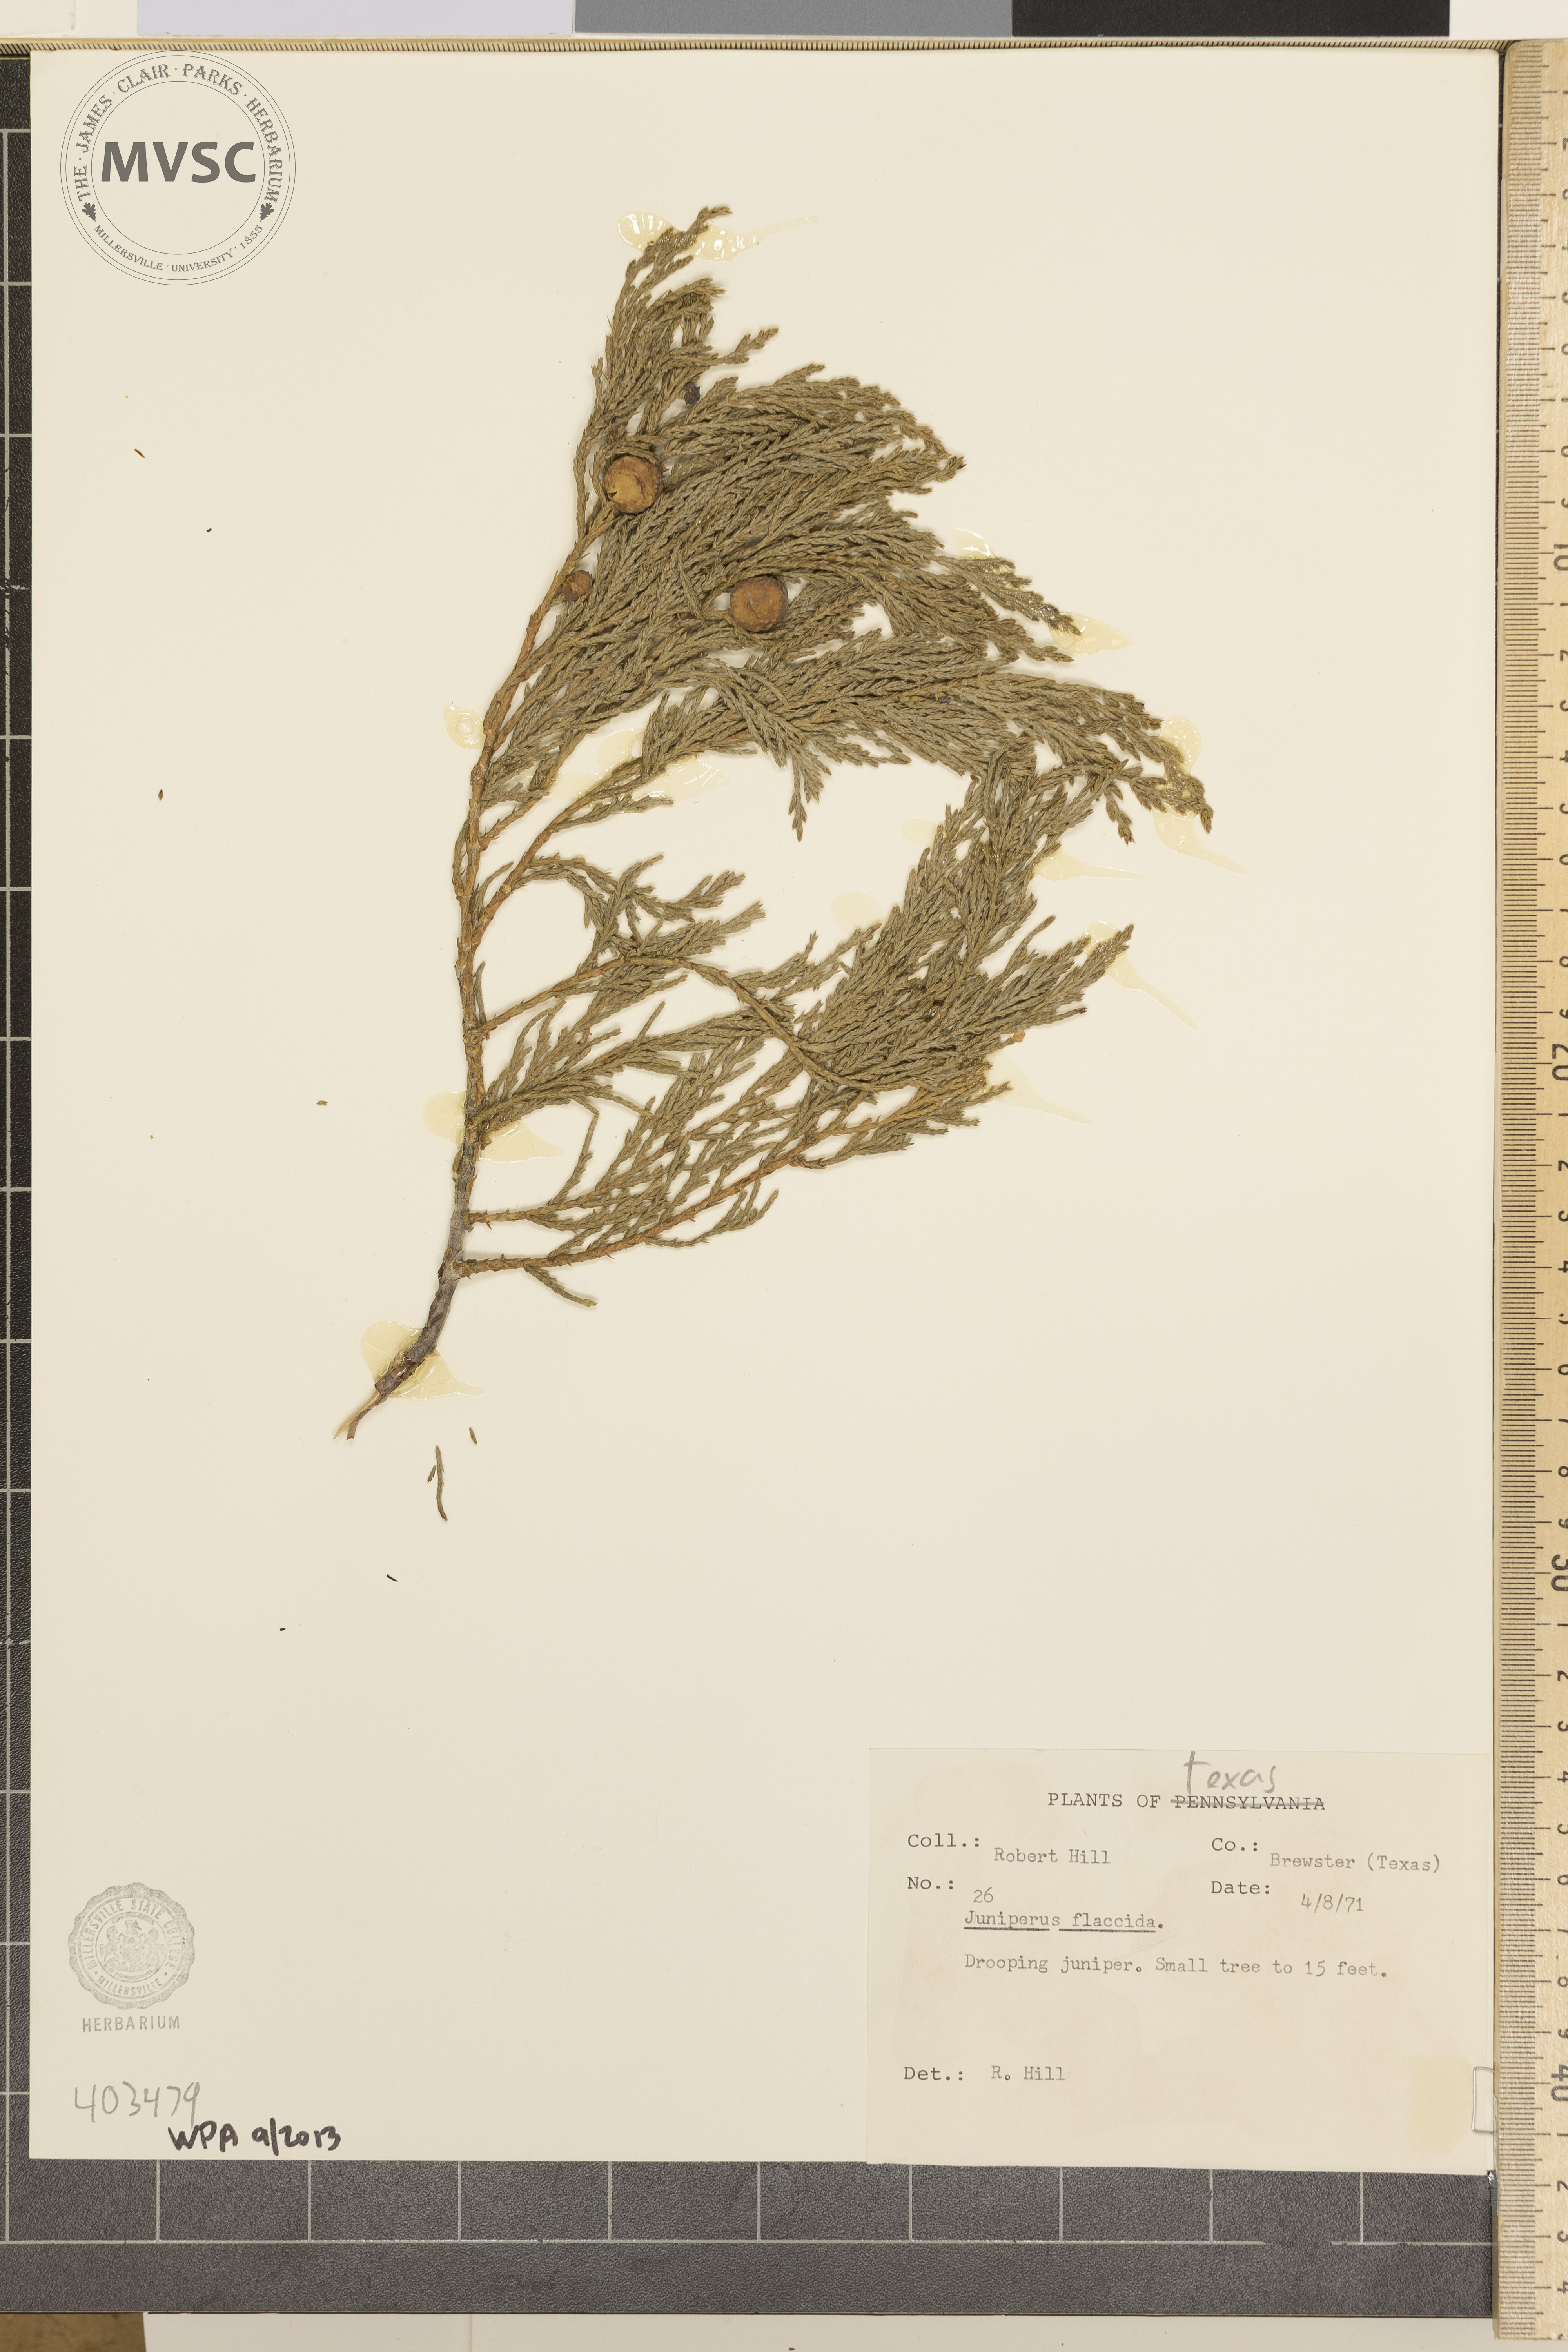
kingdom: Plantae
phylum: Tracheophyta
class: Pinopsida
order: Pinales
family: Cupressaceae
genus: Juniperus
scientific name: Juniperus flaccida
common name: Drooping juniper
